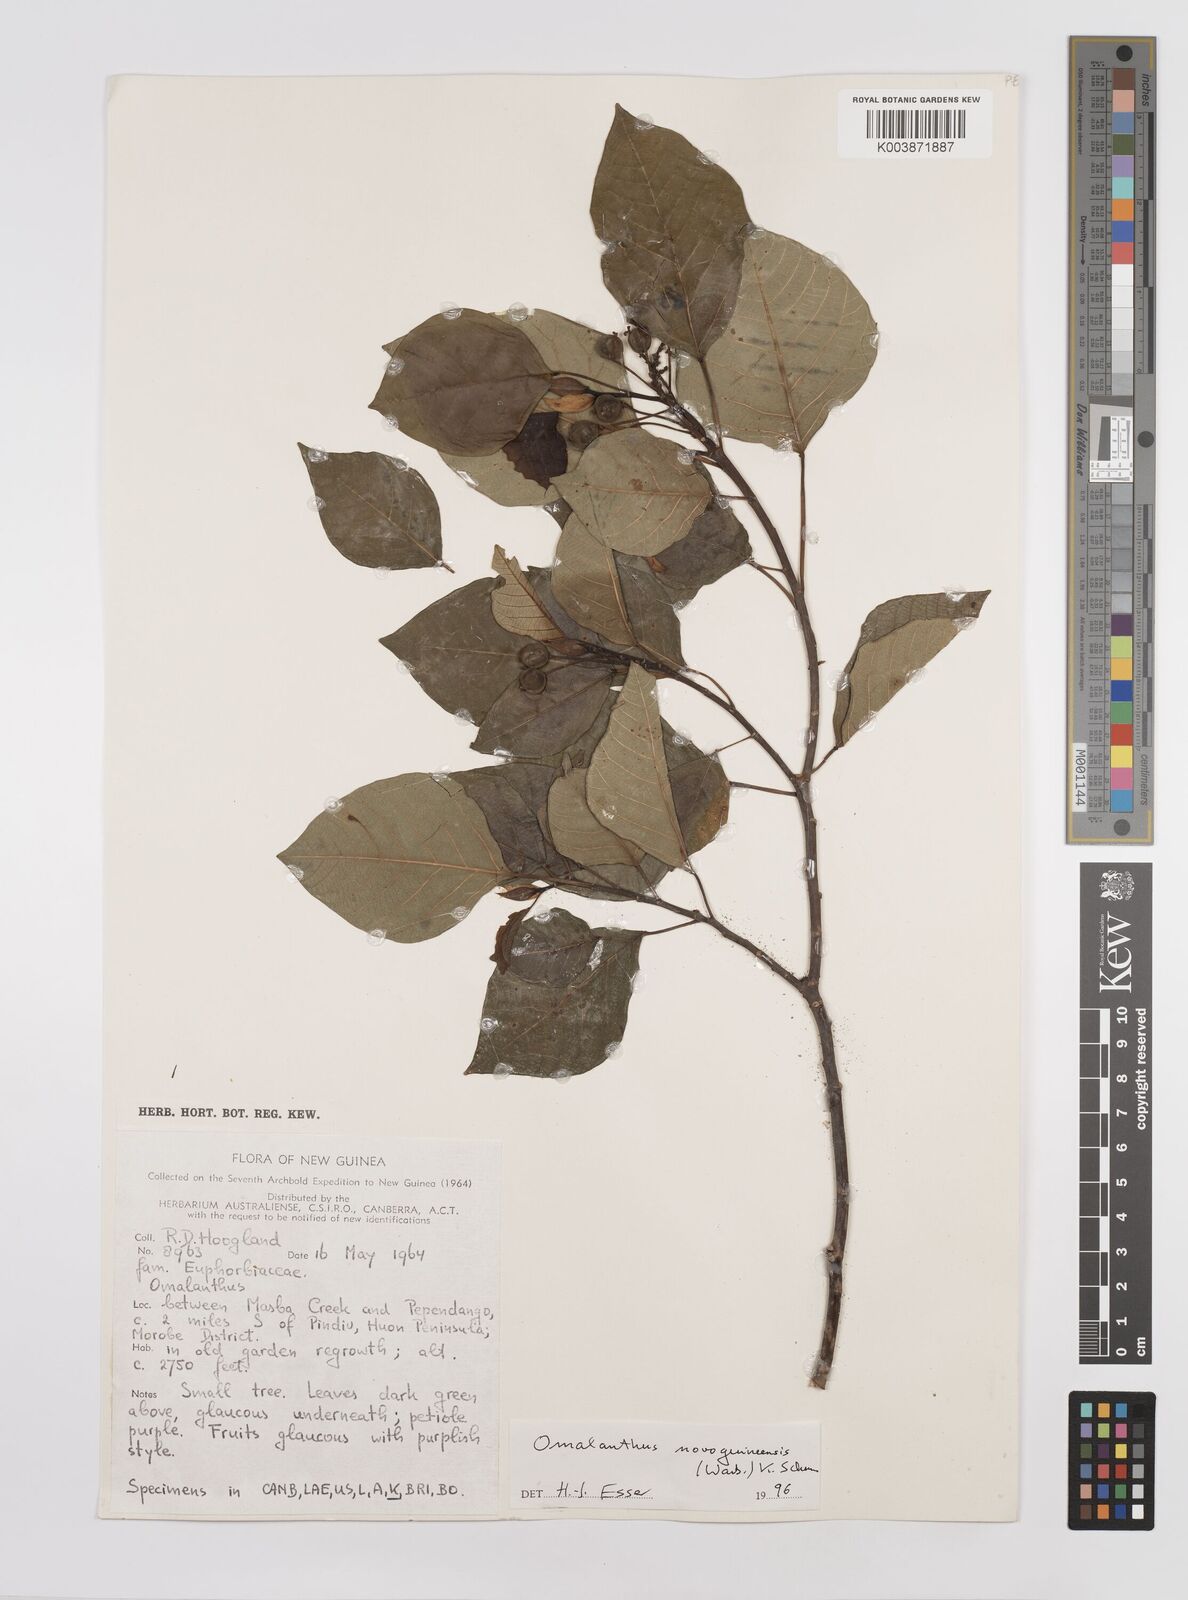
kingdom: Plantae
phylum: Tracheophyta
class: Magnoliopsida
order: Malpighiales
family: Euphorbiaceae
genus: Homalanthus
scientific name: Homalanthus novoguineensis
